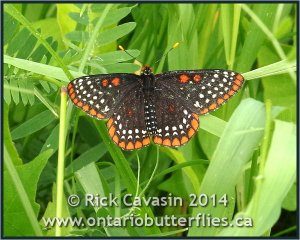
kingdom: Animalia
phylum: Arthropoda
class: Insecta
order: Lepidoptera
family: Nymphalidae
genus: Euphydryas
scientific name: Euphydryas phaeton
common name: Baltimore Checkerspot
